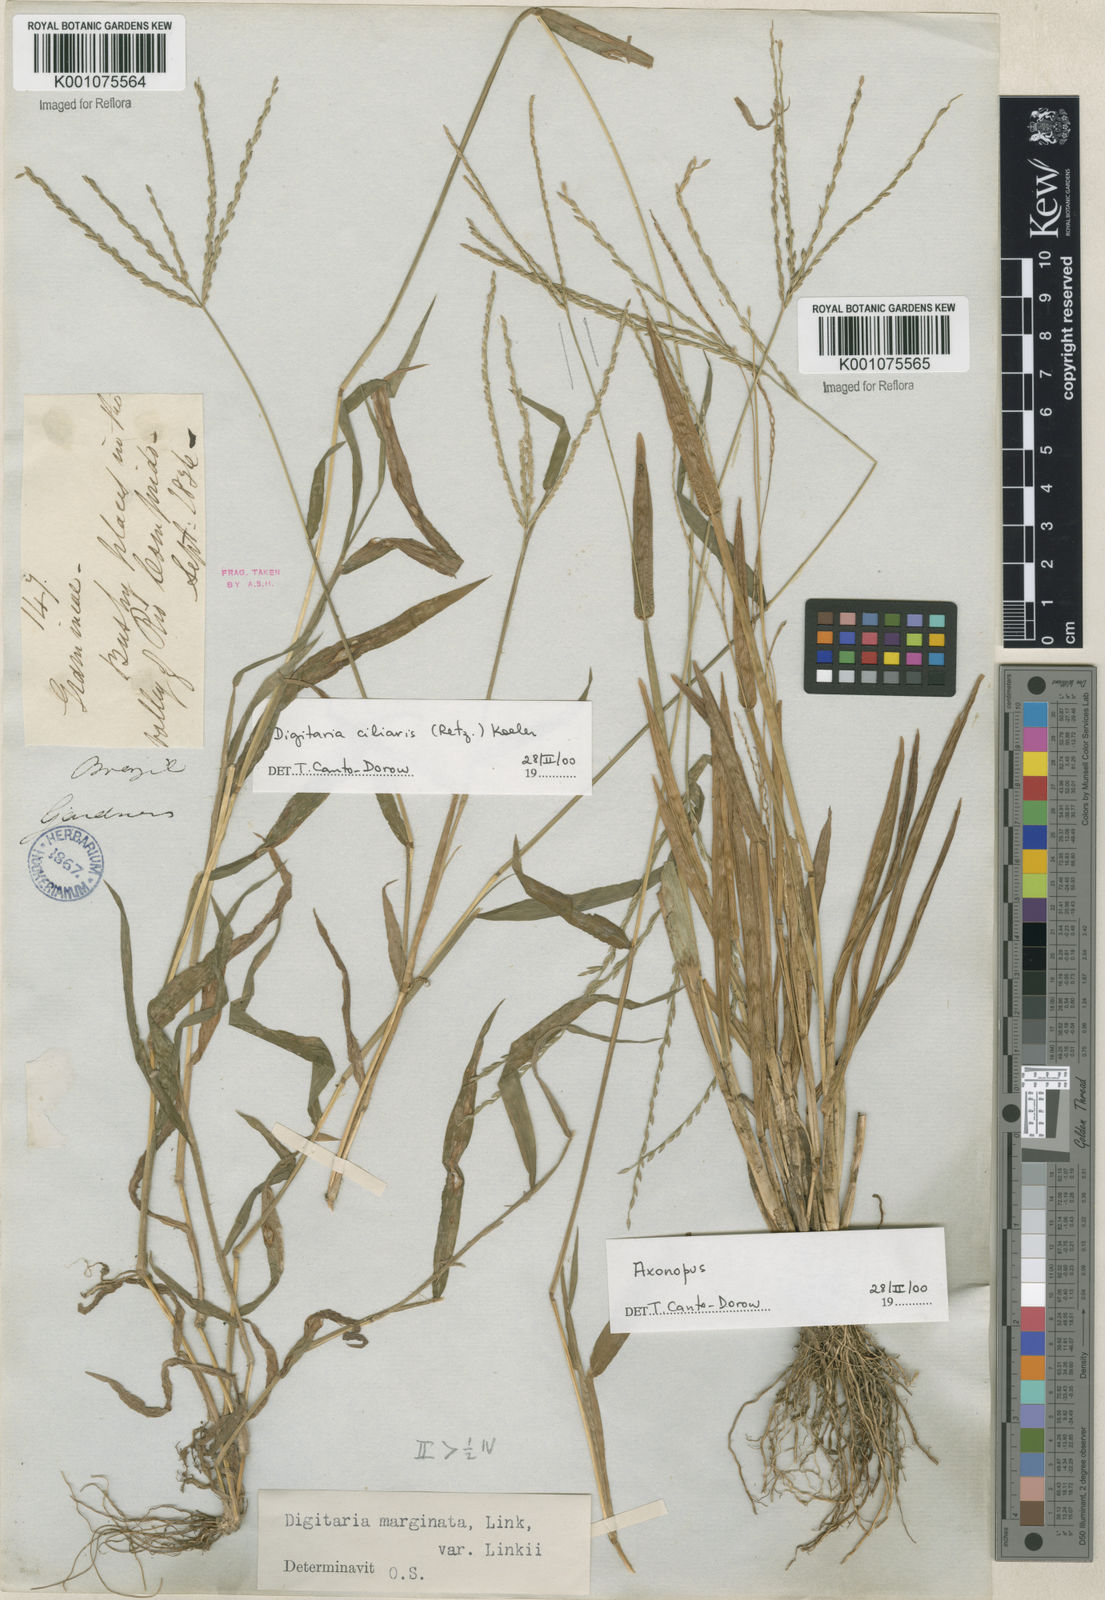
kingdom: Plantae
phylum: Tracheophyta
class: Liliopsida
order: Poales
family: Poaceae
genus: Digitaria
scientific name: Digitaria ciliaris
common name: Tropical finger-grass
